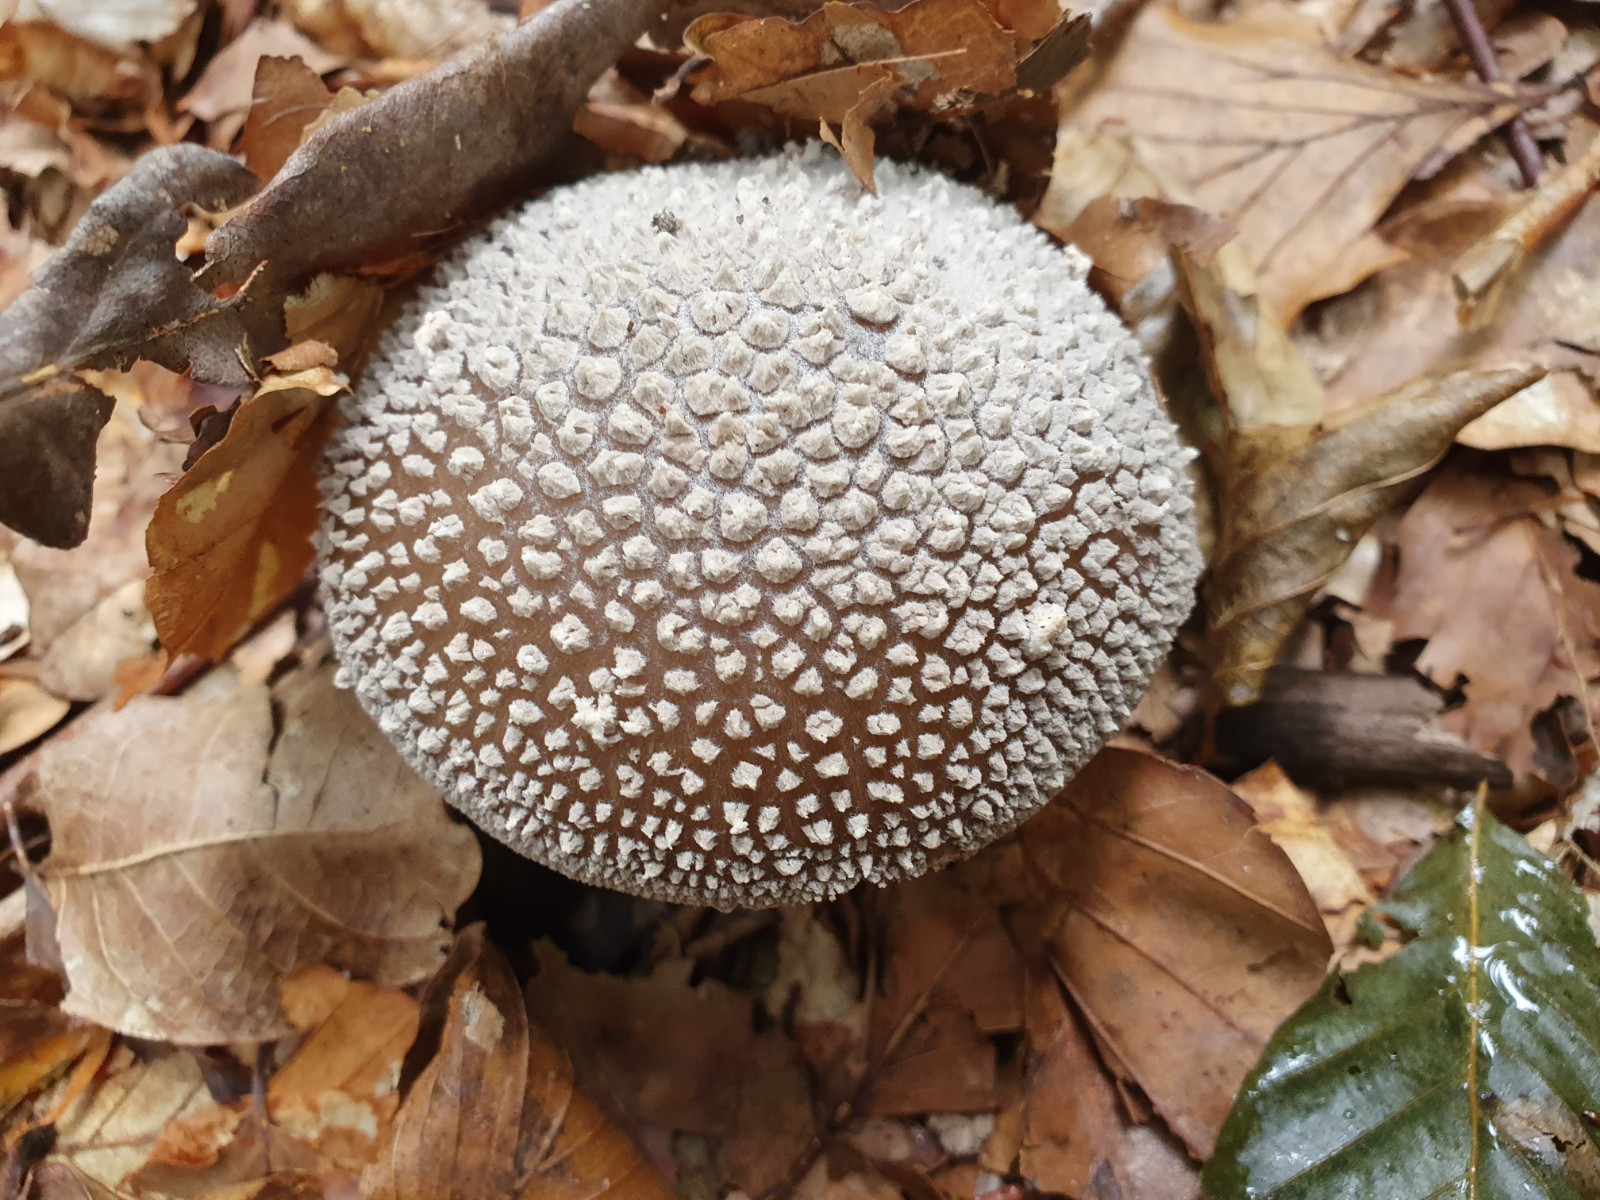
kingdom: Fungi
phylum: Basidiomycota
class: Agaricomycetes
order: Agaricales
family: Amanitaceae
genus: Amanita
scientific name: Amanita
